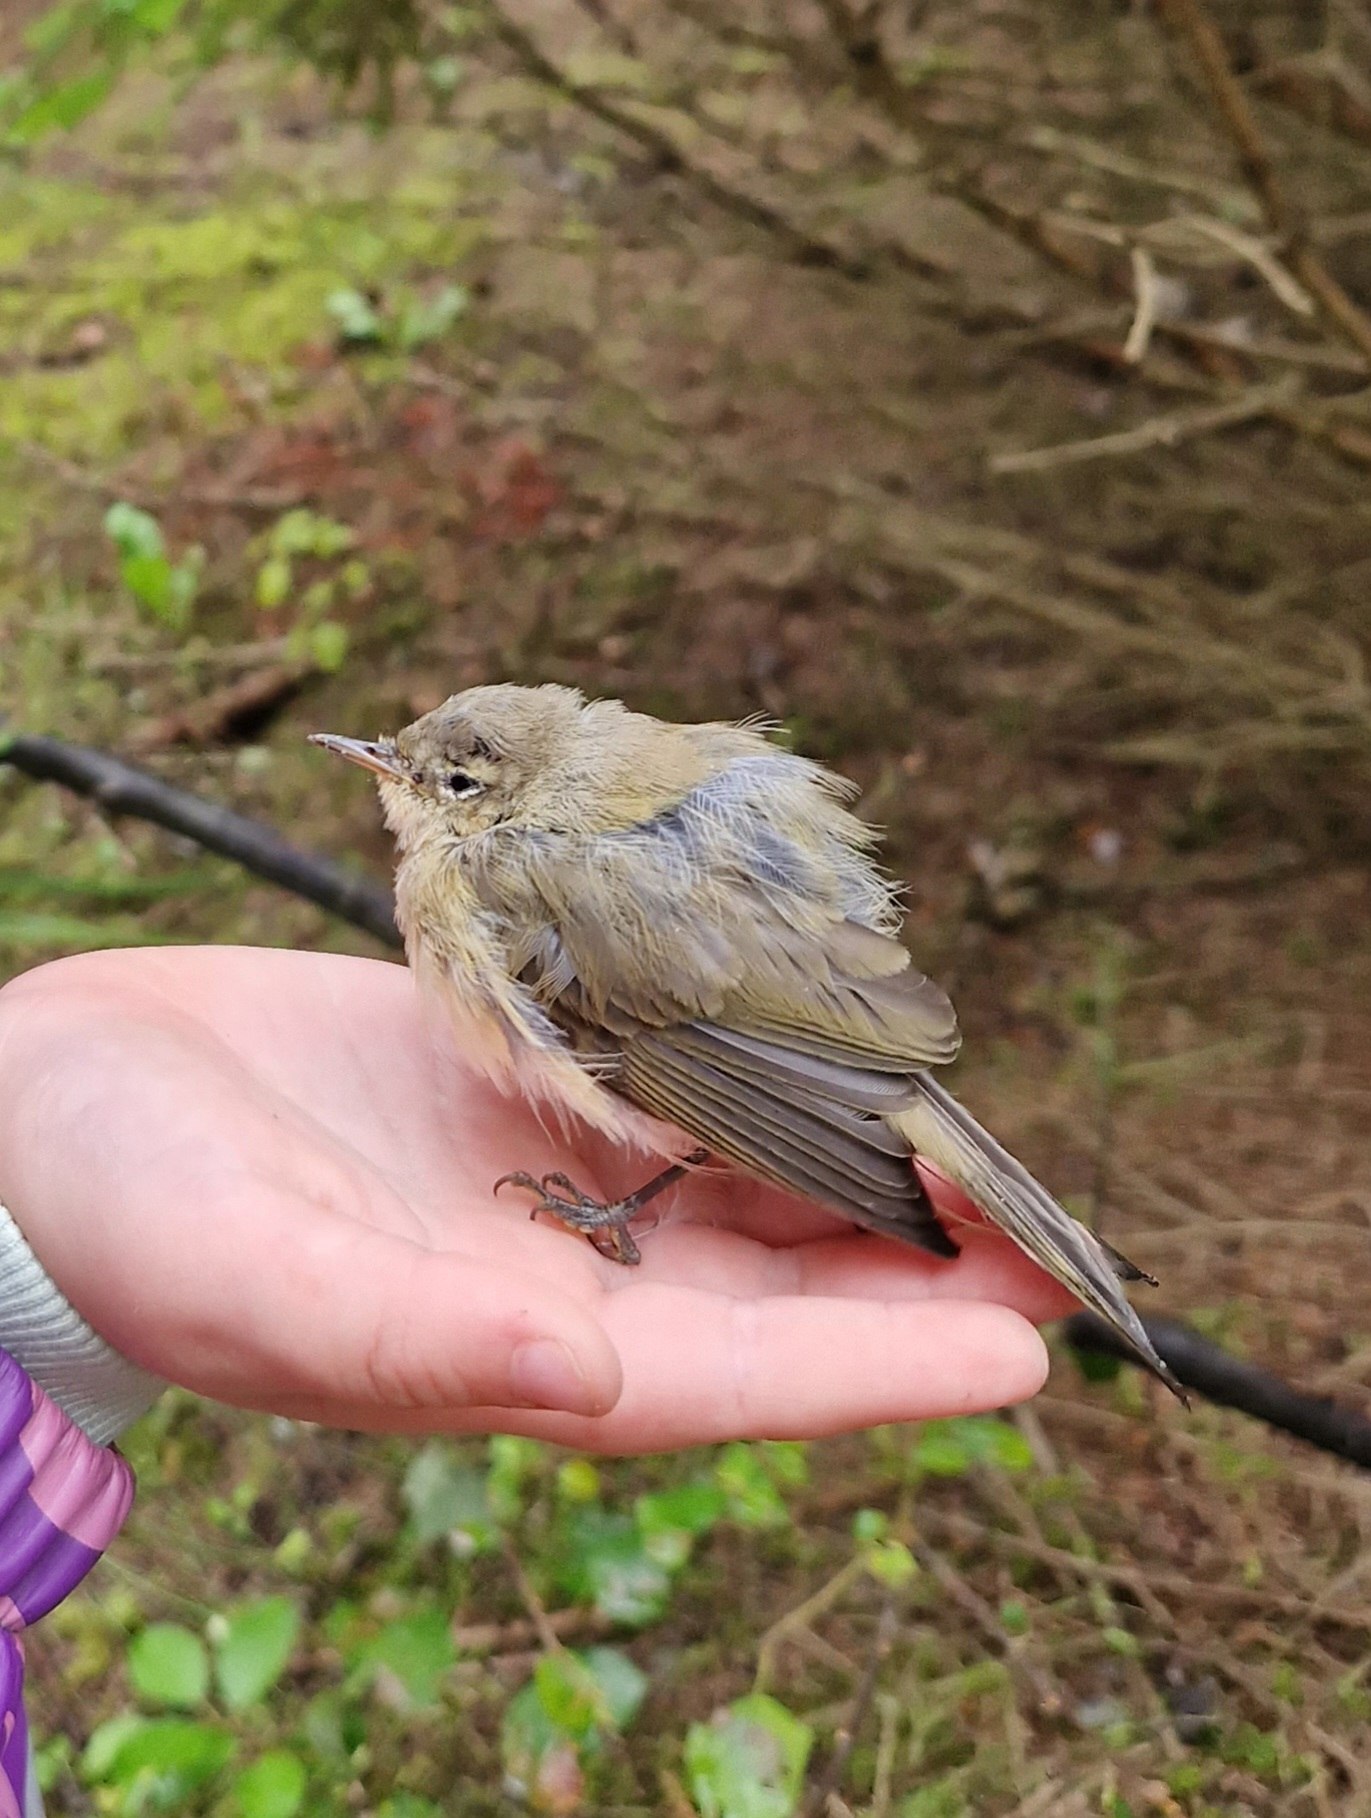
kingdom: Animalia
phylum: Chordata
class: Aves
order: Passeriformes
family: Phylloscopidae
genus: Phylloscopus
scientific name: Phylloscopus collybita
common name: Gransanger
